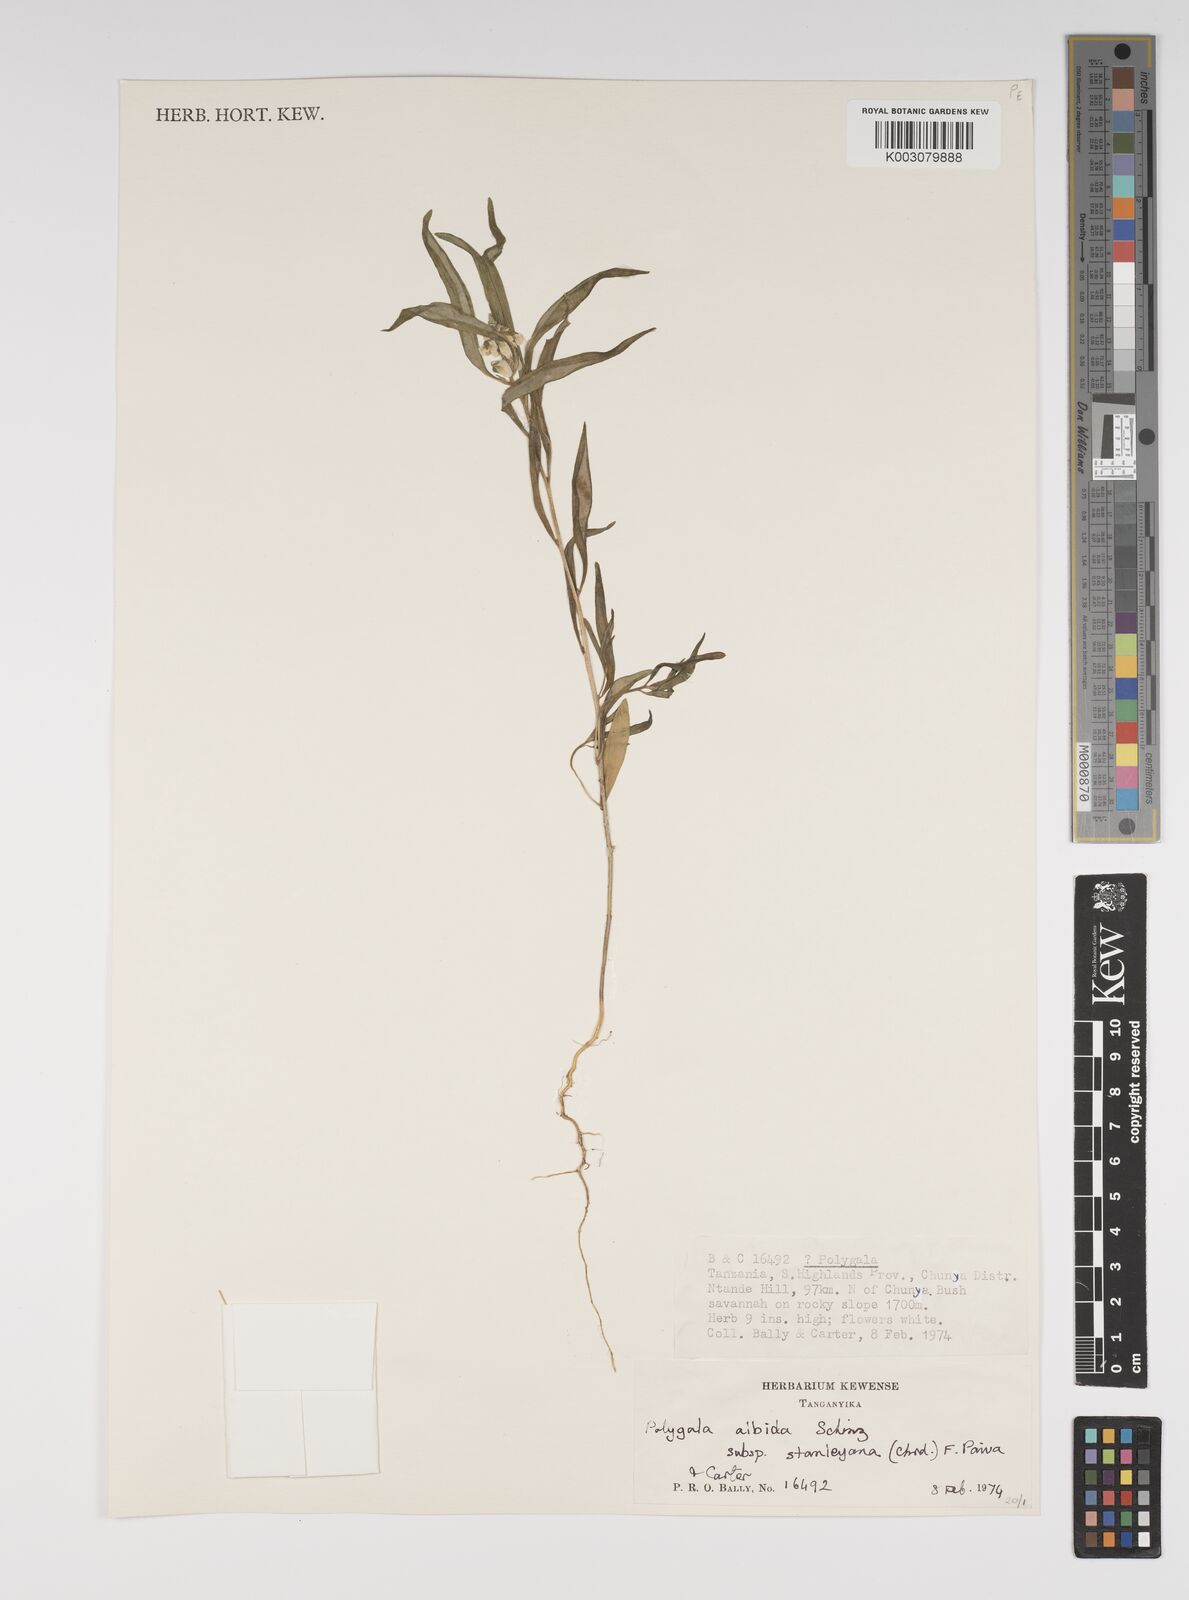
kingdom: Plantae
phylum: Tracheophyta
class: Magnoliopsida
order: Fabales
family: Polygalaceae
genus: Polygala
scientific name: Polygala albida
